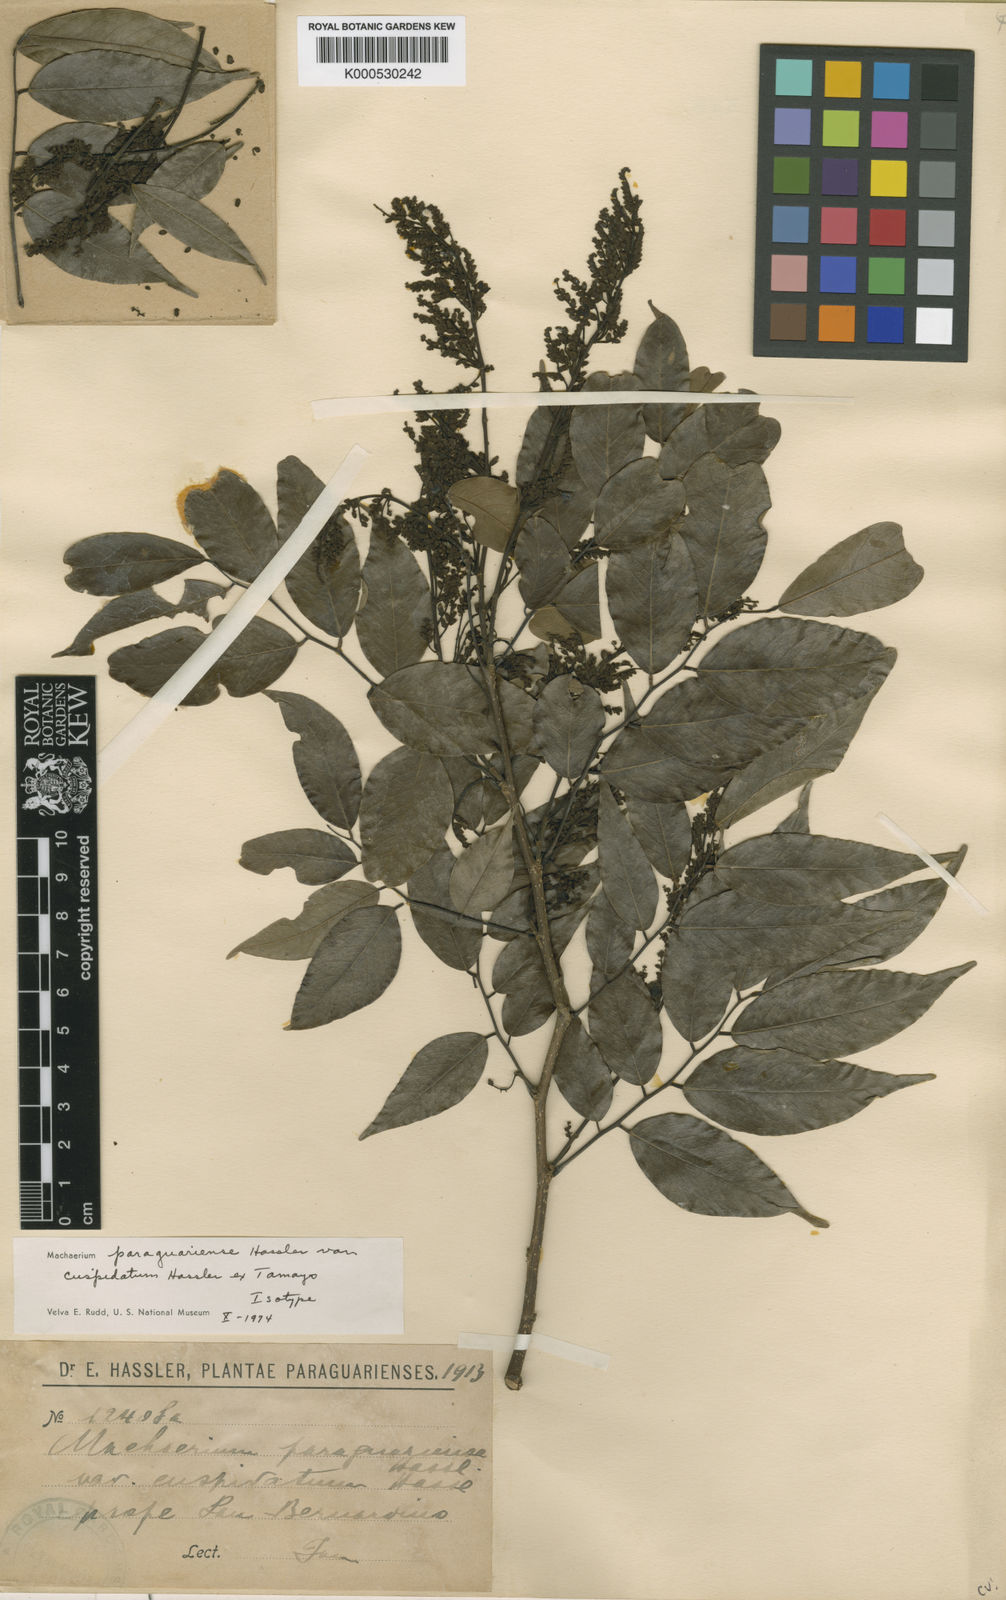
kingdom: Plantae
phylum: Tracheophyta
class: Magnoliopsida
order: Fabales
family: Fabaceae
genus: Machaerium
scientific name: Machaerium oblongifolium
